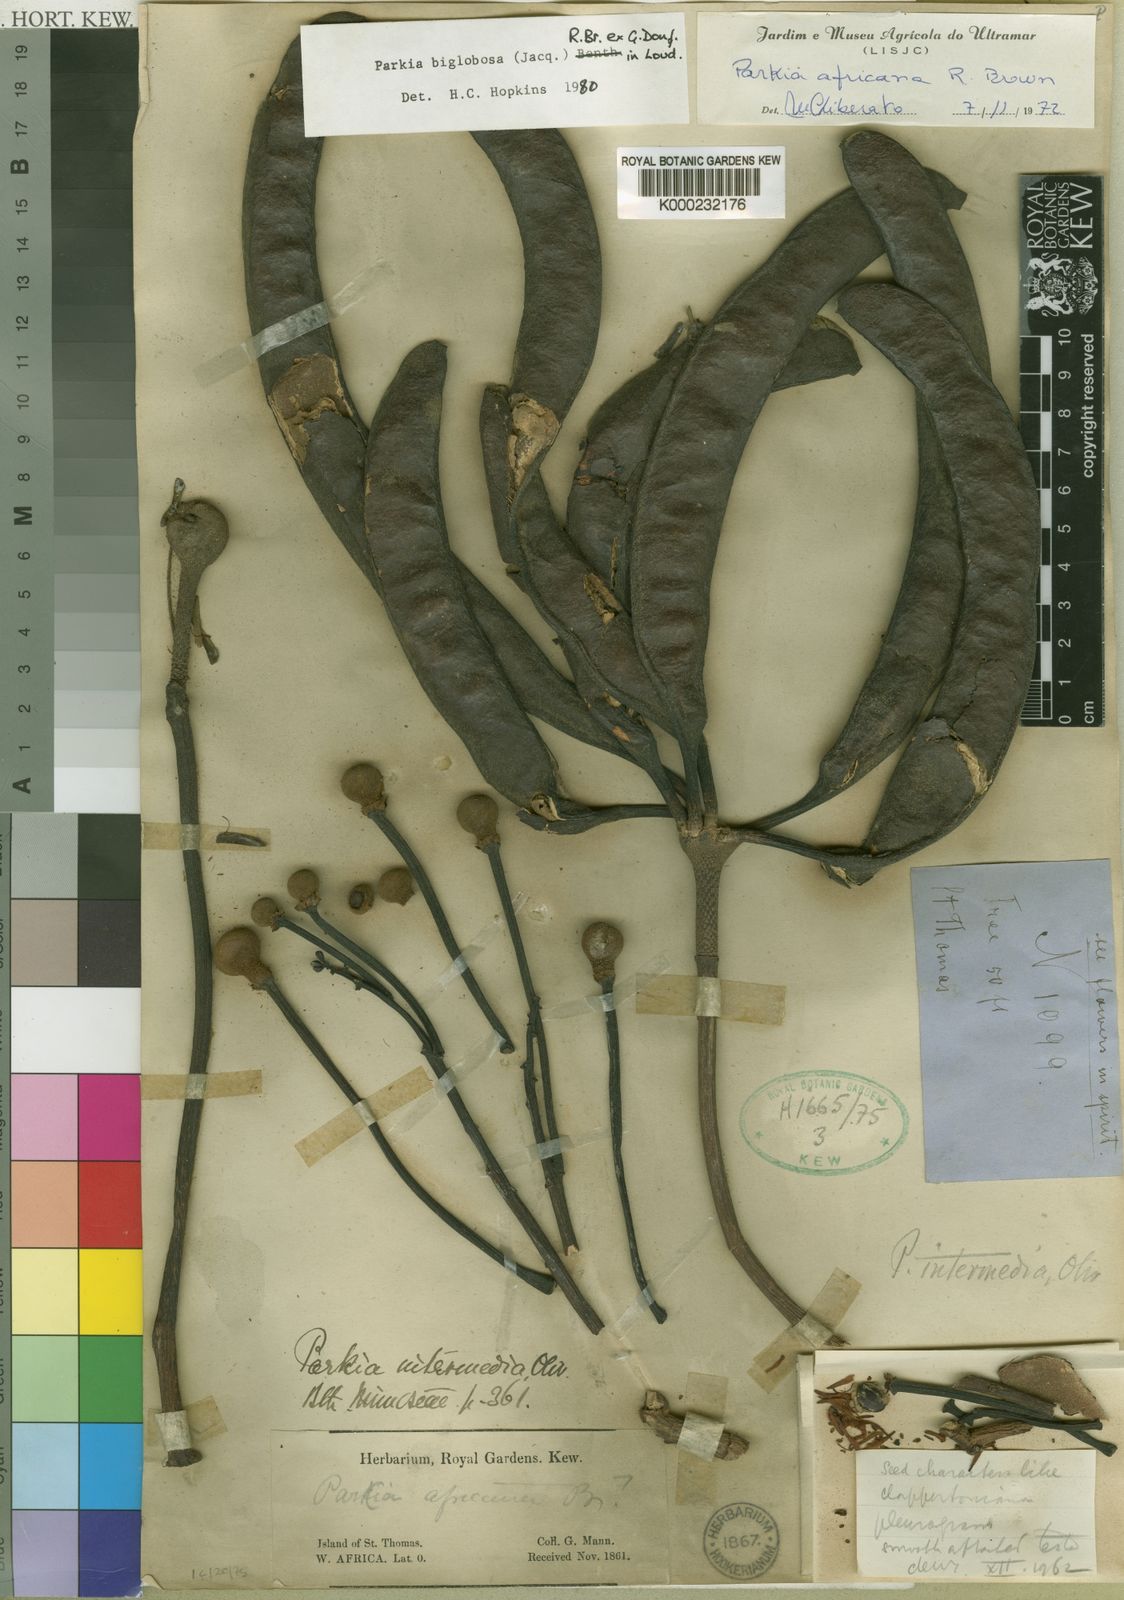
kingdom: Plantae
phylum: Tracheophyta
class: Magnoliopsida
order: Fabales
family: Fabaceae
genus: Parkia
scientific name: Parkia biglobosa
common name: African locust-bean
